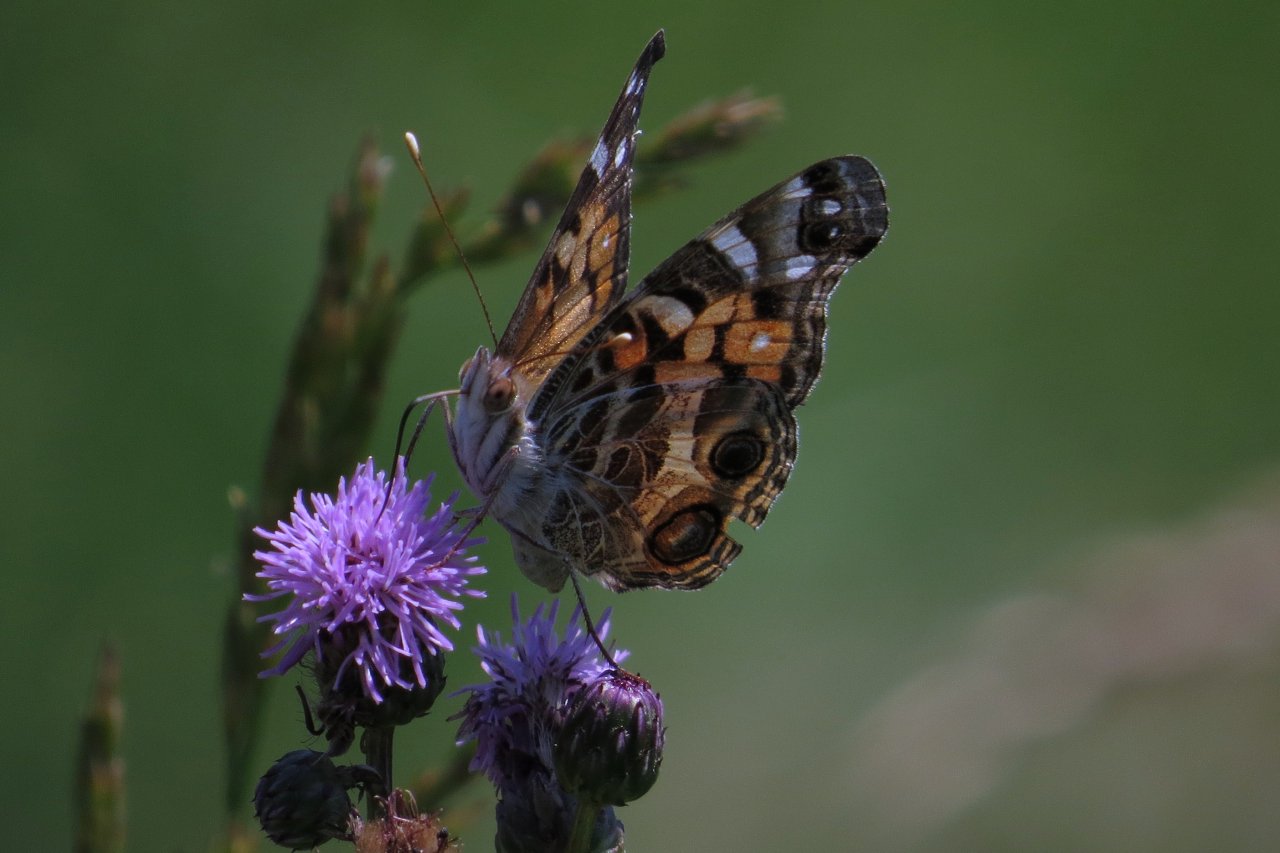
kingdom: Animalia
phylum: Arthropoda
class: Insecta
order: Lepidoptera
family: Nymphalidae
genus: Vanessa
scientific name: Vanessa virginiensis
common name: American Lady
